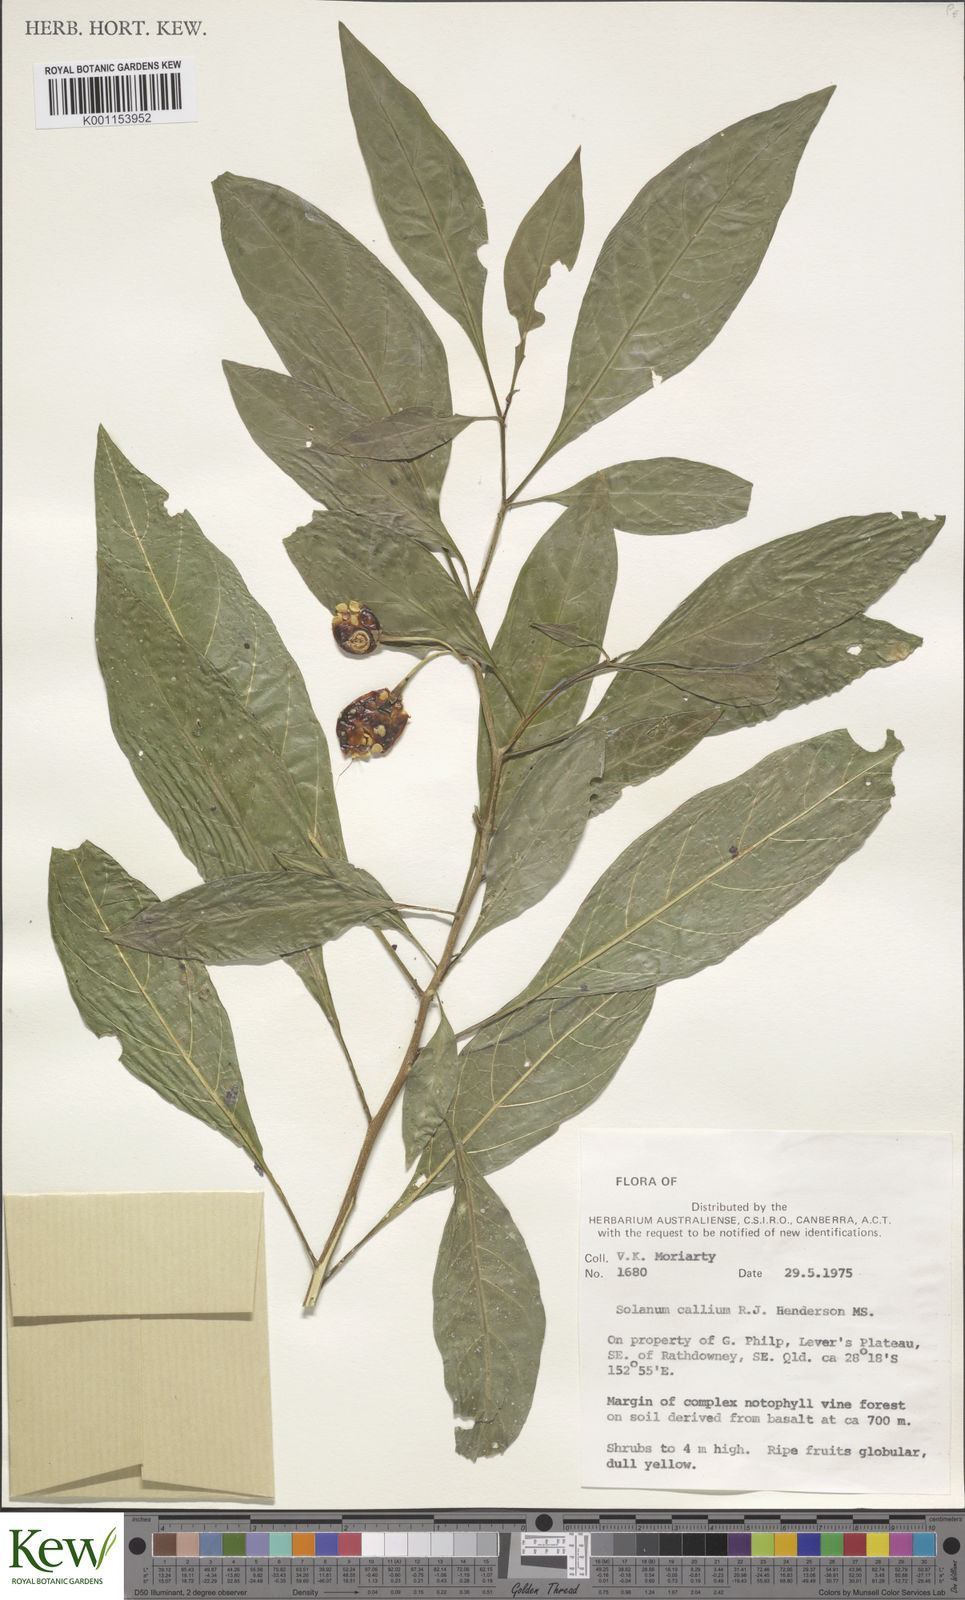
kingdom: Plantae
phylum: Tracheophyta
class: Magnoliopsida
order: Solanales
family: Solanaceae
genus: Solanum
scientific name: Solanum spirale
